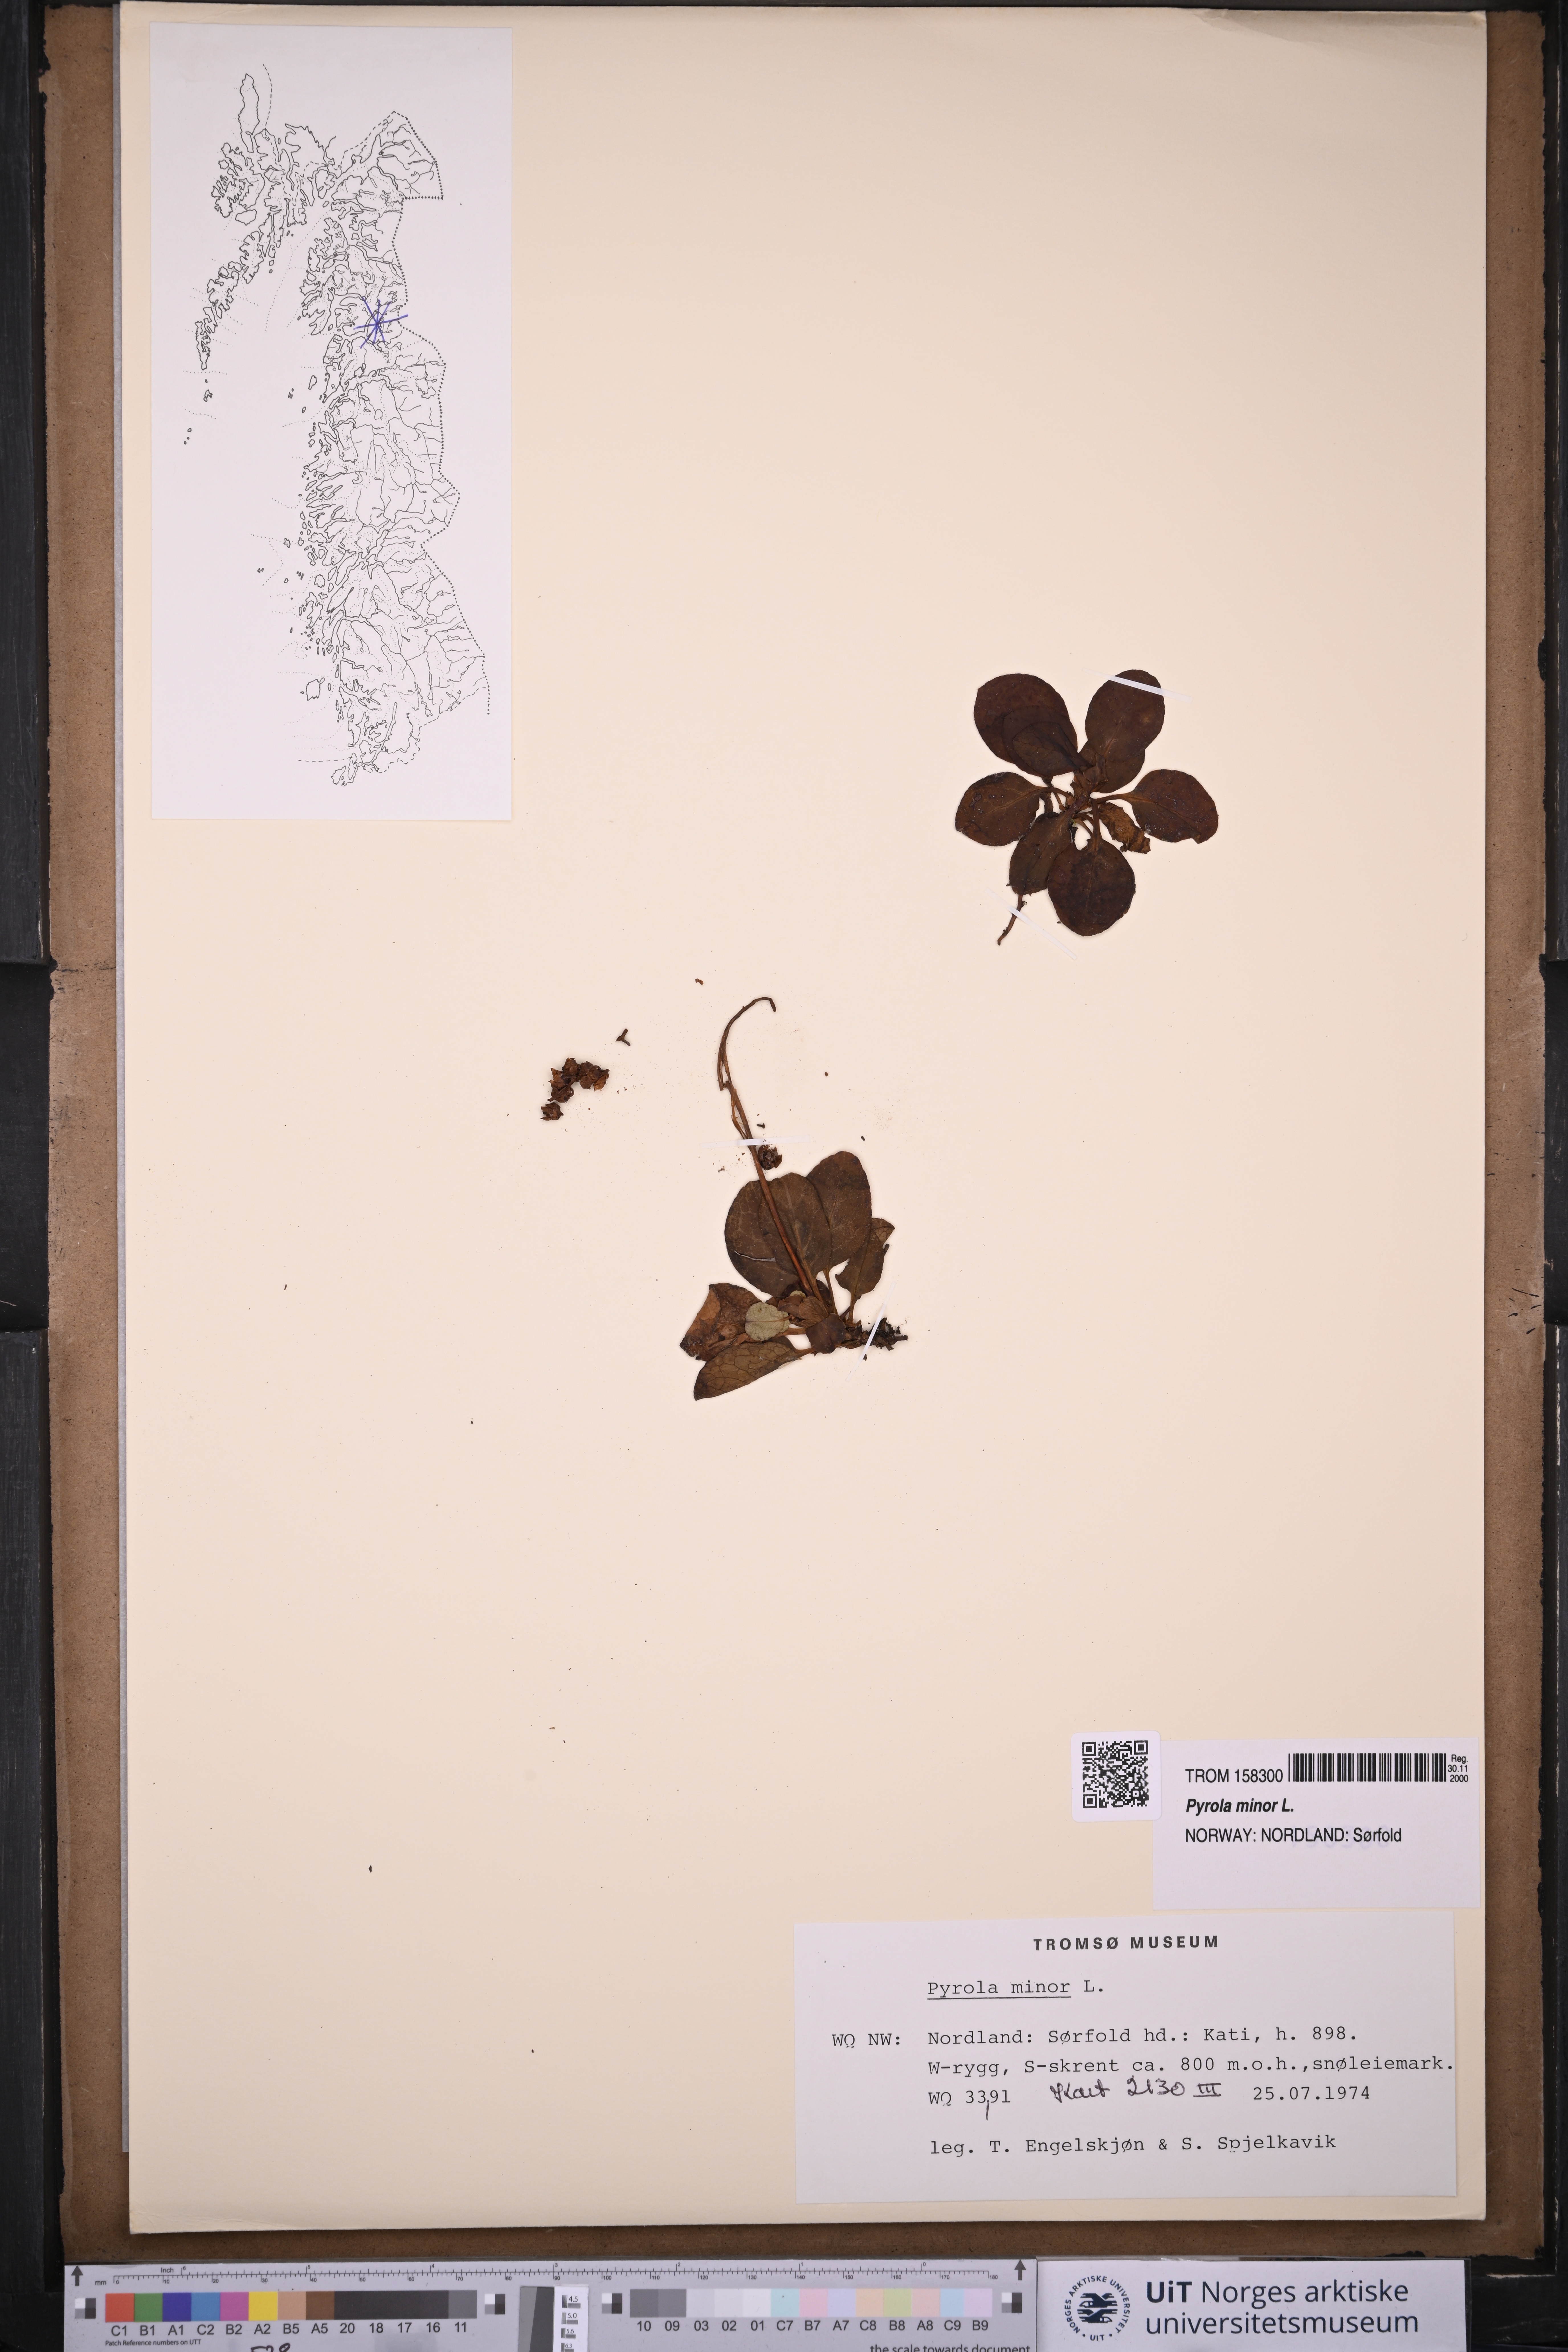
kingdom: Plantae
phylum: Tracheophyta
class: Magnoliopsida
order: Ericales
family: Ericaceae
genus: Pyrola
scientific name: Pyrola minor
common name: Common wintergreen
